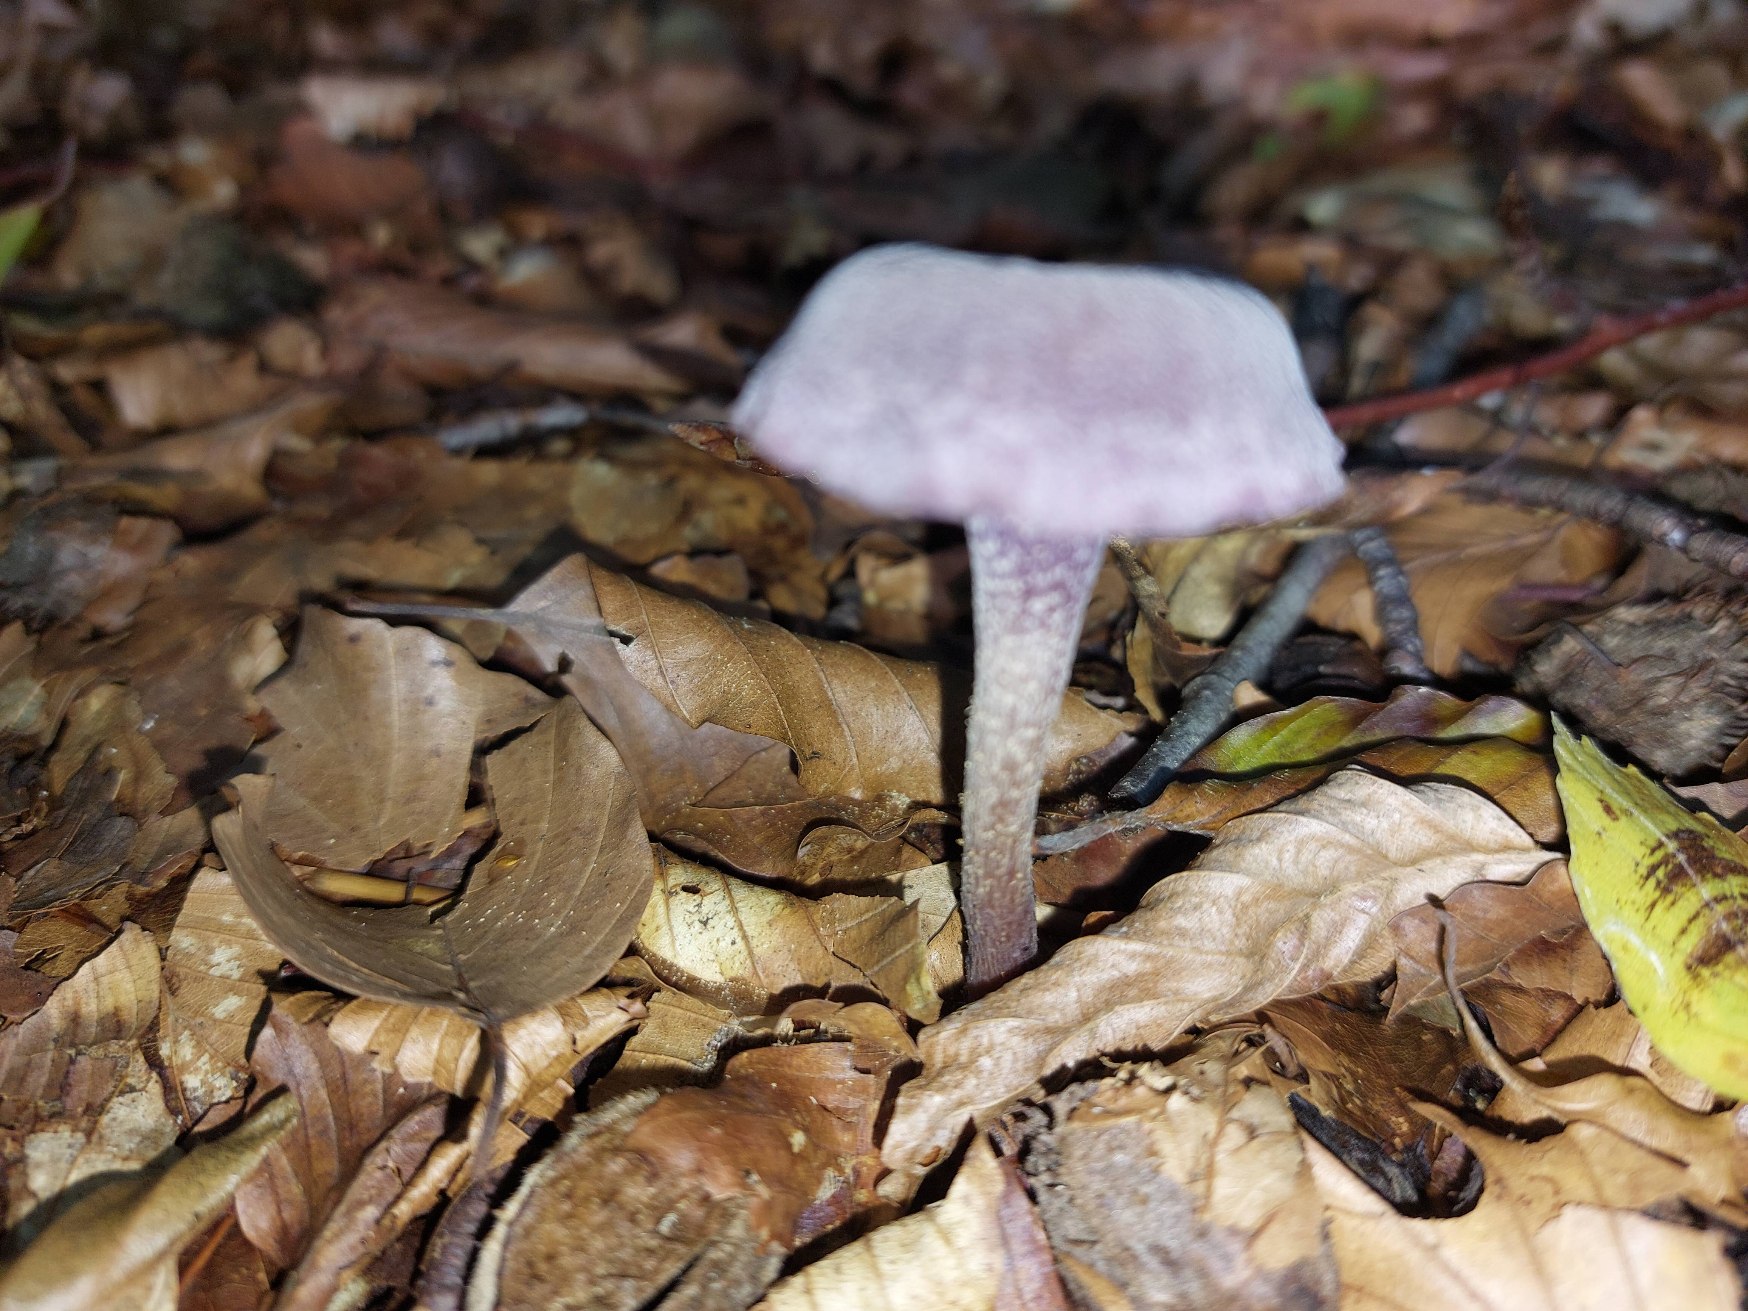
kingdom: Fungi
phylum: Basidiomycota
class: Agaricomycetes
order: Agaricales
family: Hydnangiaceae
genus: Laccaria
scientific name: Laccaria amethystina
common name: Violet ametysthat
